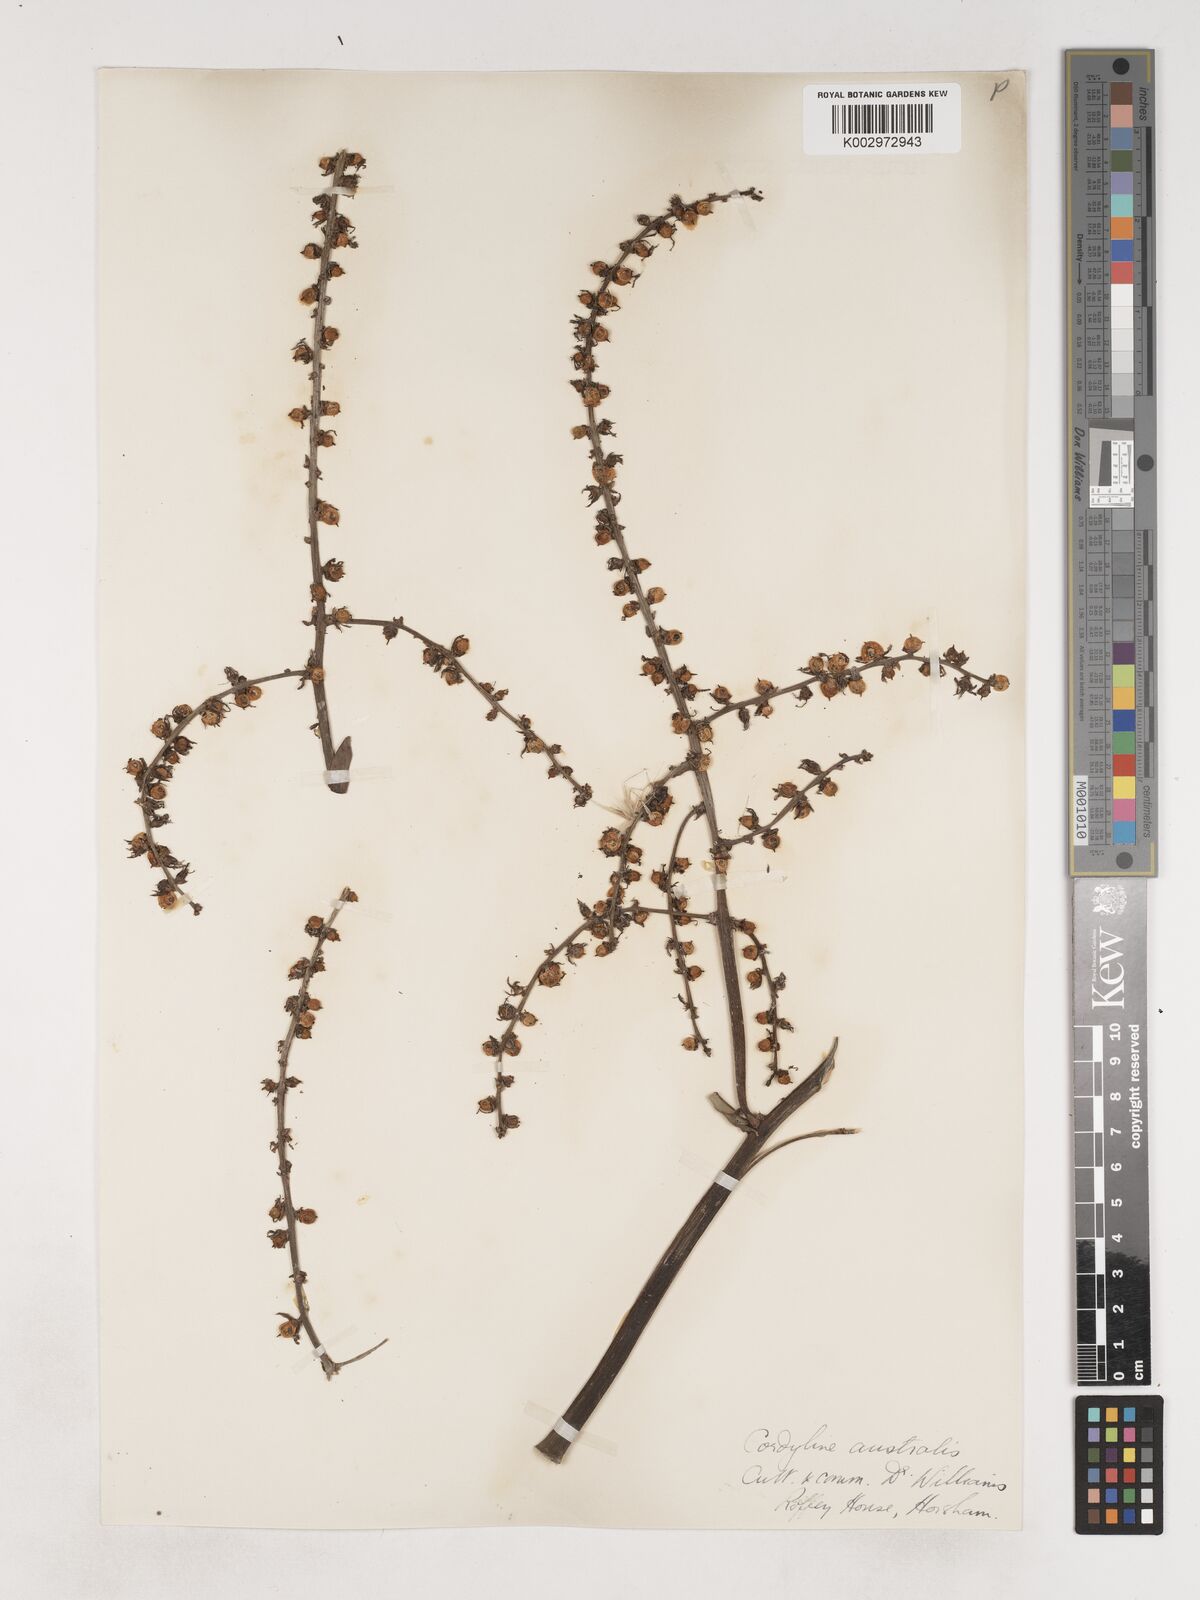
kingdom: Plantae
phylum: Tracheophyta
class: Liliopsida
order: Asparagales
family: Asparagaceae
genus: Cordyline
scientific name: Cordyline
